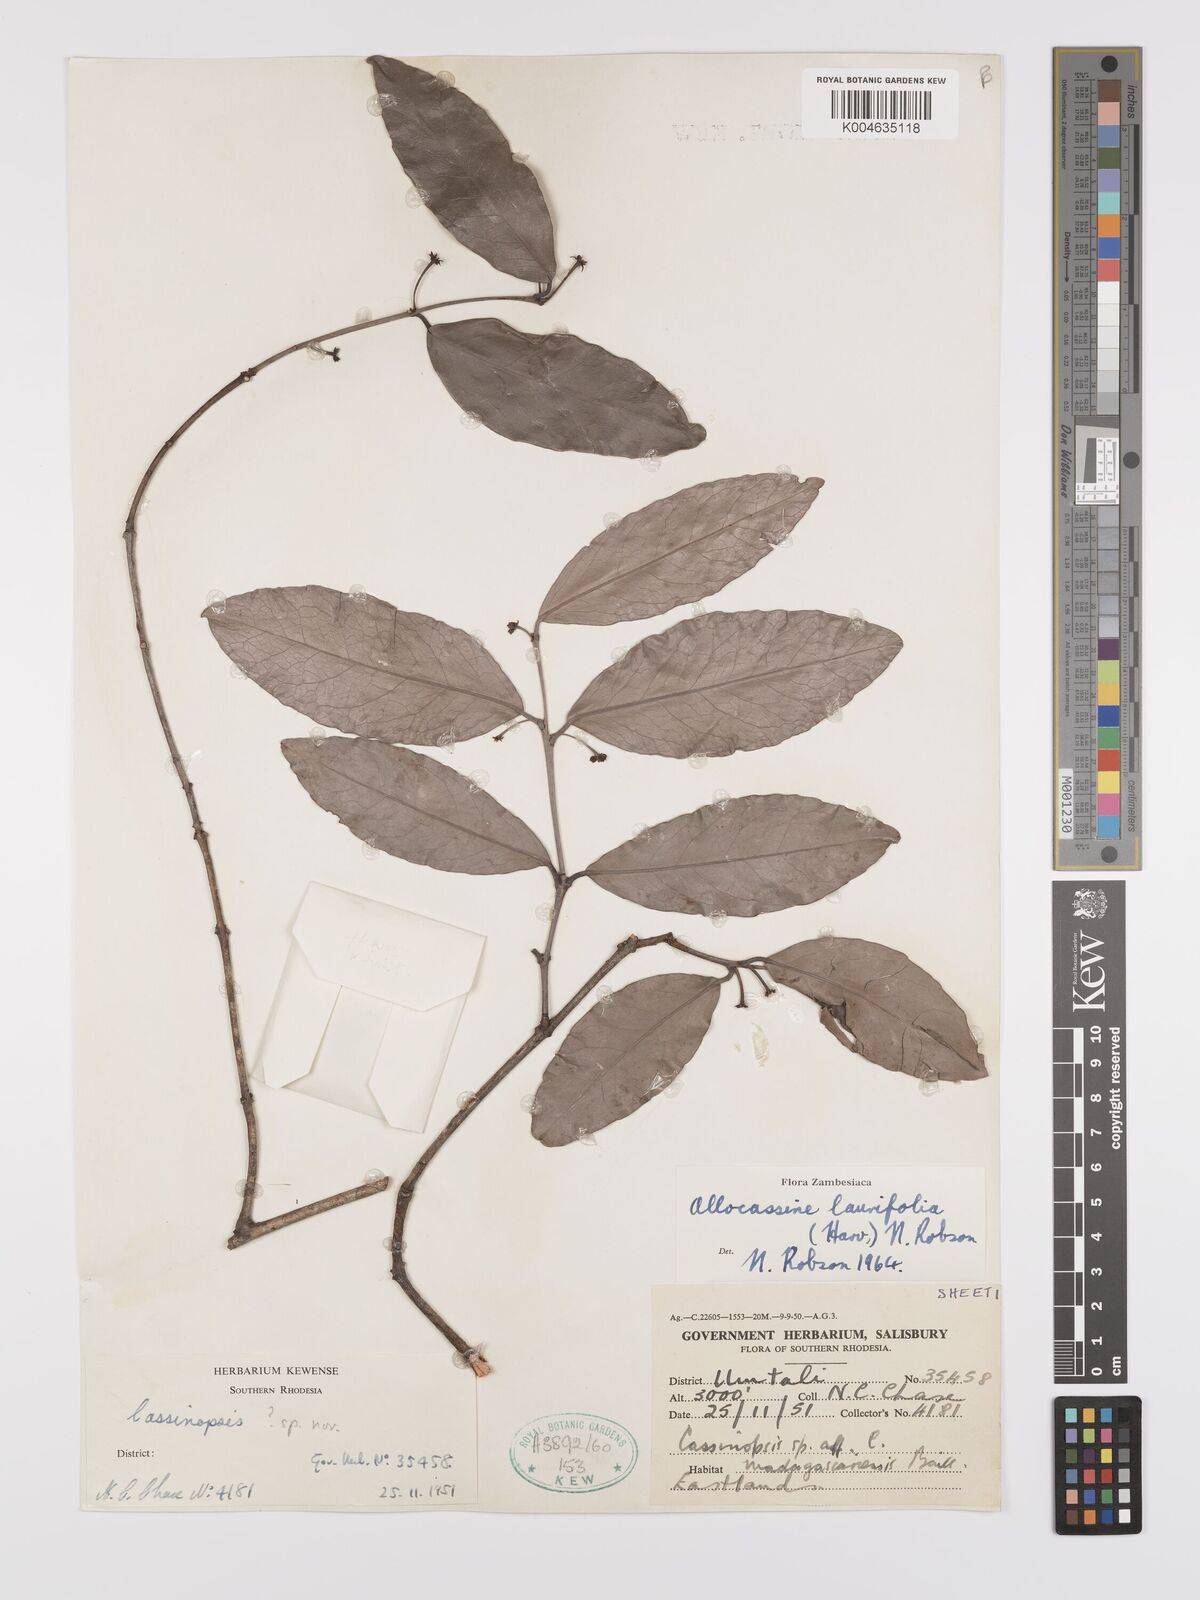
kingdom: Plantae
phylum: Tracheophyta
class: Magnoliopsida
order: Celastrales
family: Celastraceae
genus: Allocassine
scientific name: Allocassine laurifolia
